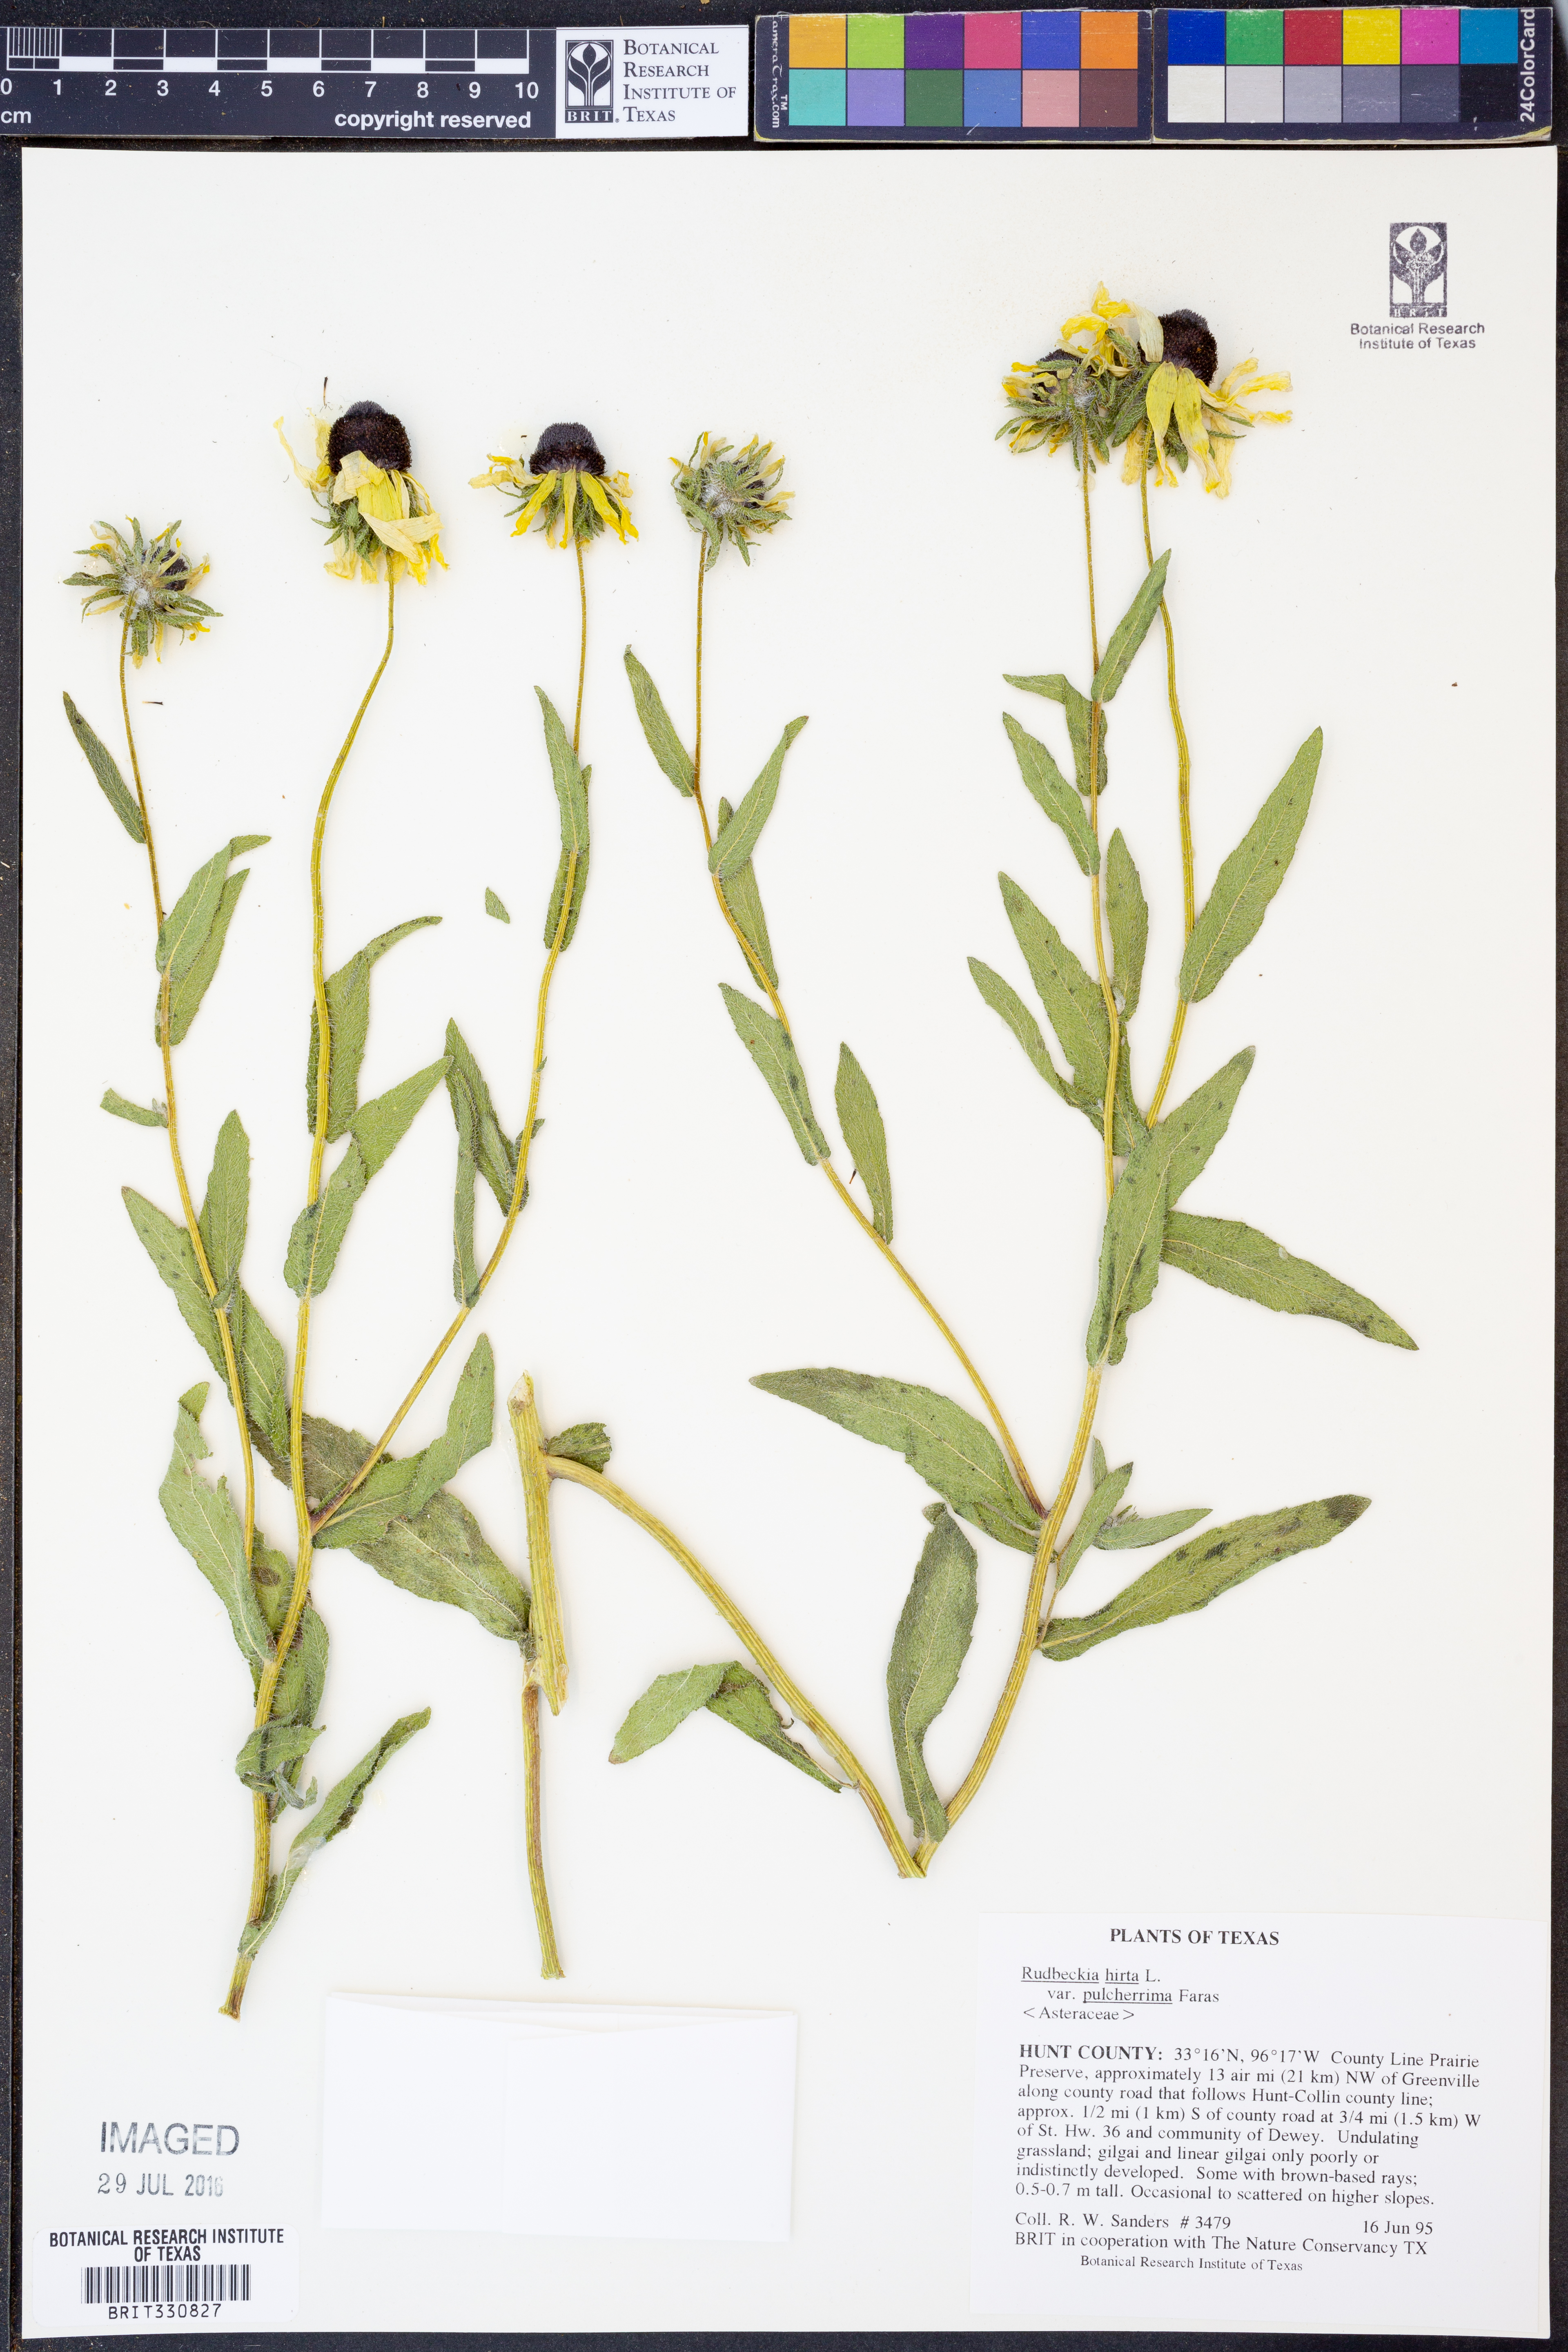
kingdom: Plantae
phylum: Tracheophyta
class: Magnoliopsida
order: Asterales
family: Asteraceae
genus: Rudbeckia
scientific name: Rudbeckia hirta
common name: Black-eyed-susan
